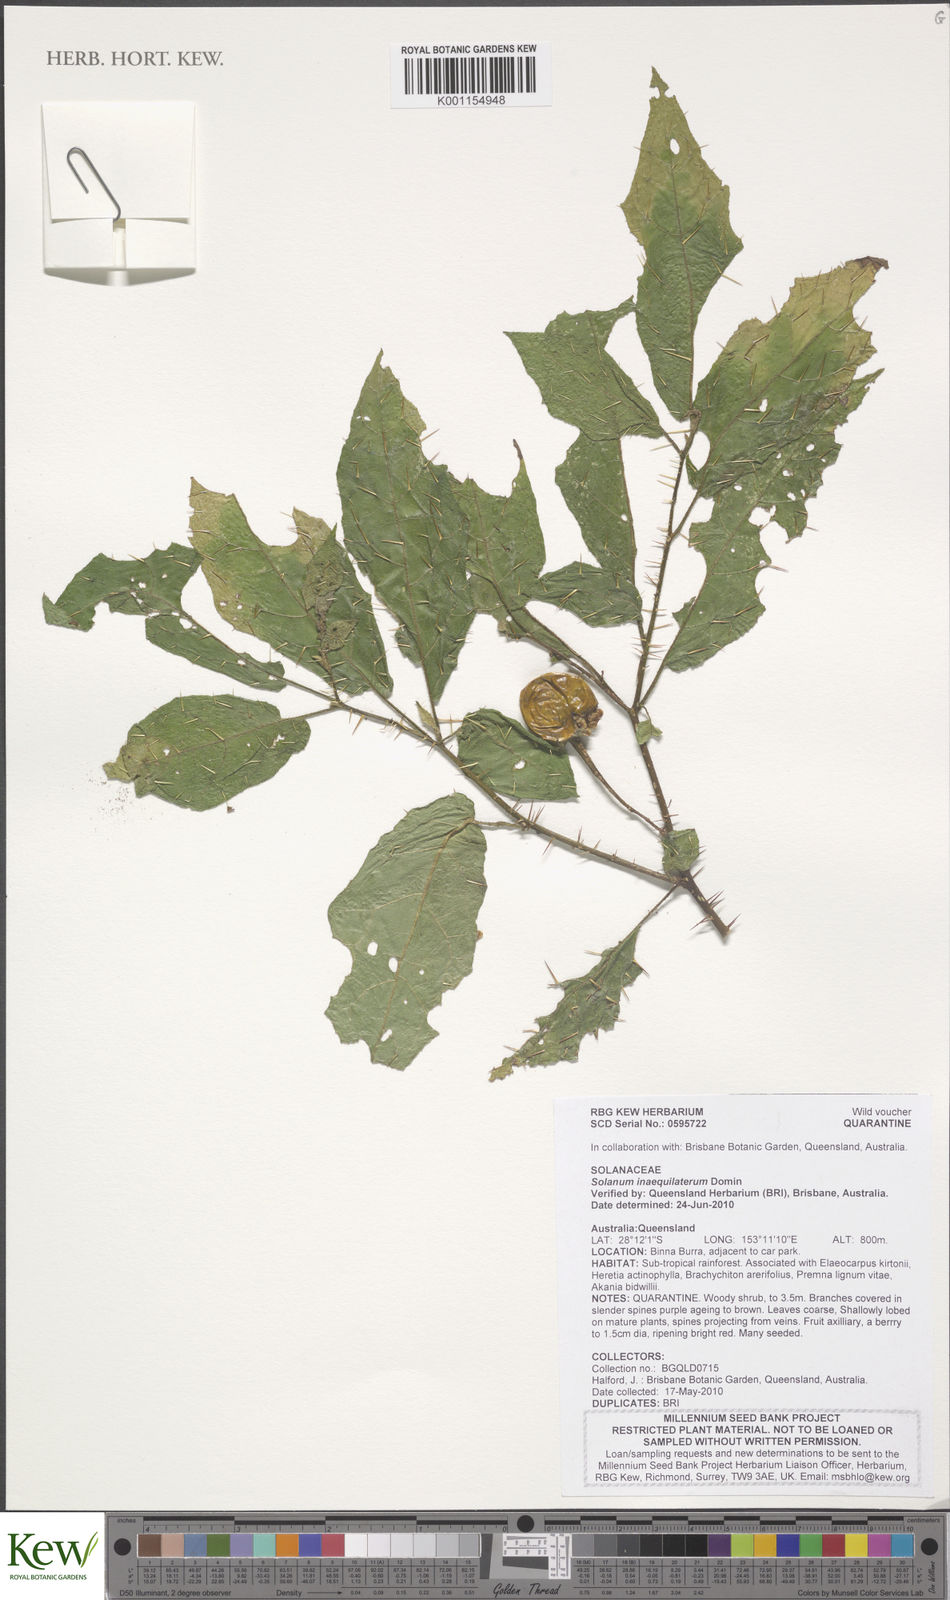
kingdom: Plantae
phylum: Tracheophyta
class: Magnoliopsida
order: Solanales
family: Solanaceae
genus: Solanum
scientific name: Solanum inaequilaterum
